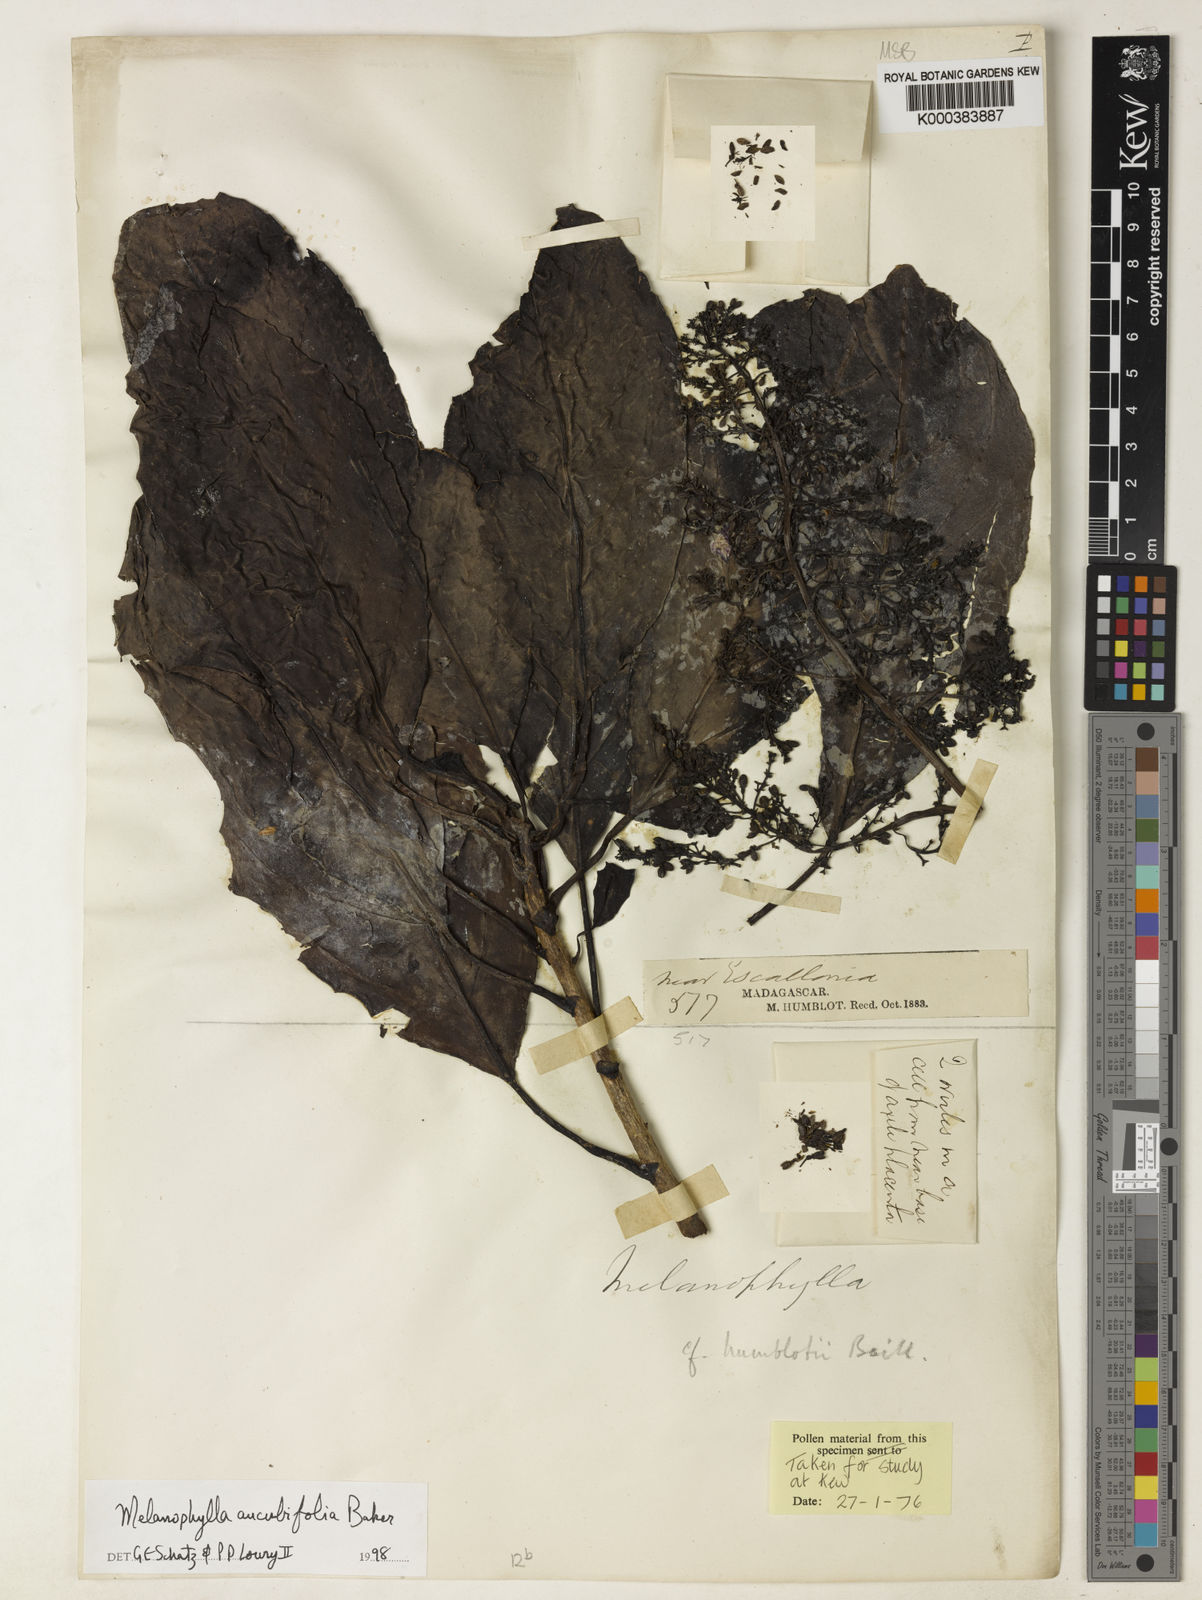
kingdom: Plantae
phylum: Tracheophyta
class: Magnoliopsida
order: Apiales
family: Torricelliaceae
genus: Melanophylla
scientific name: Melanophylla aucubifolia
